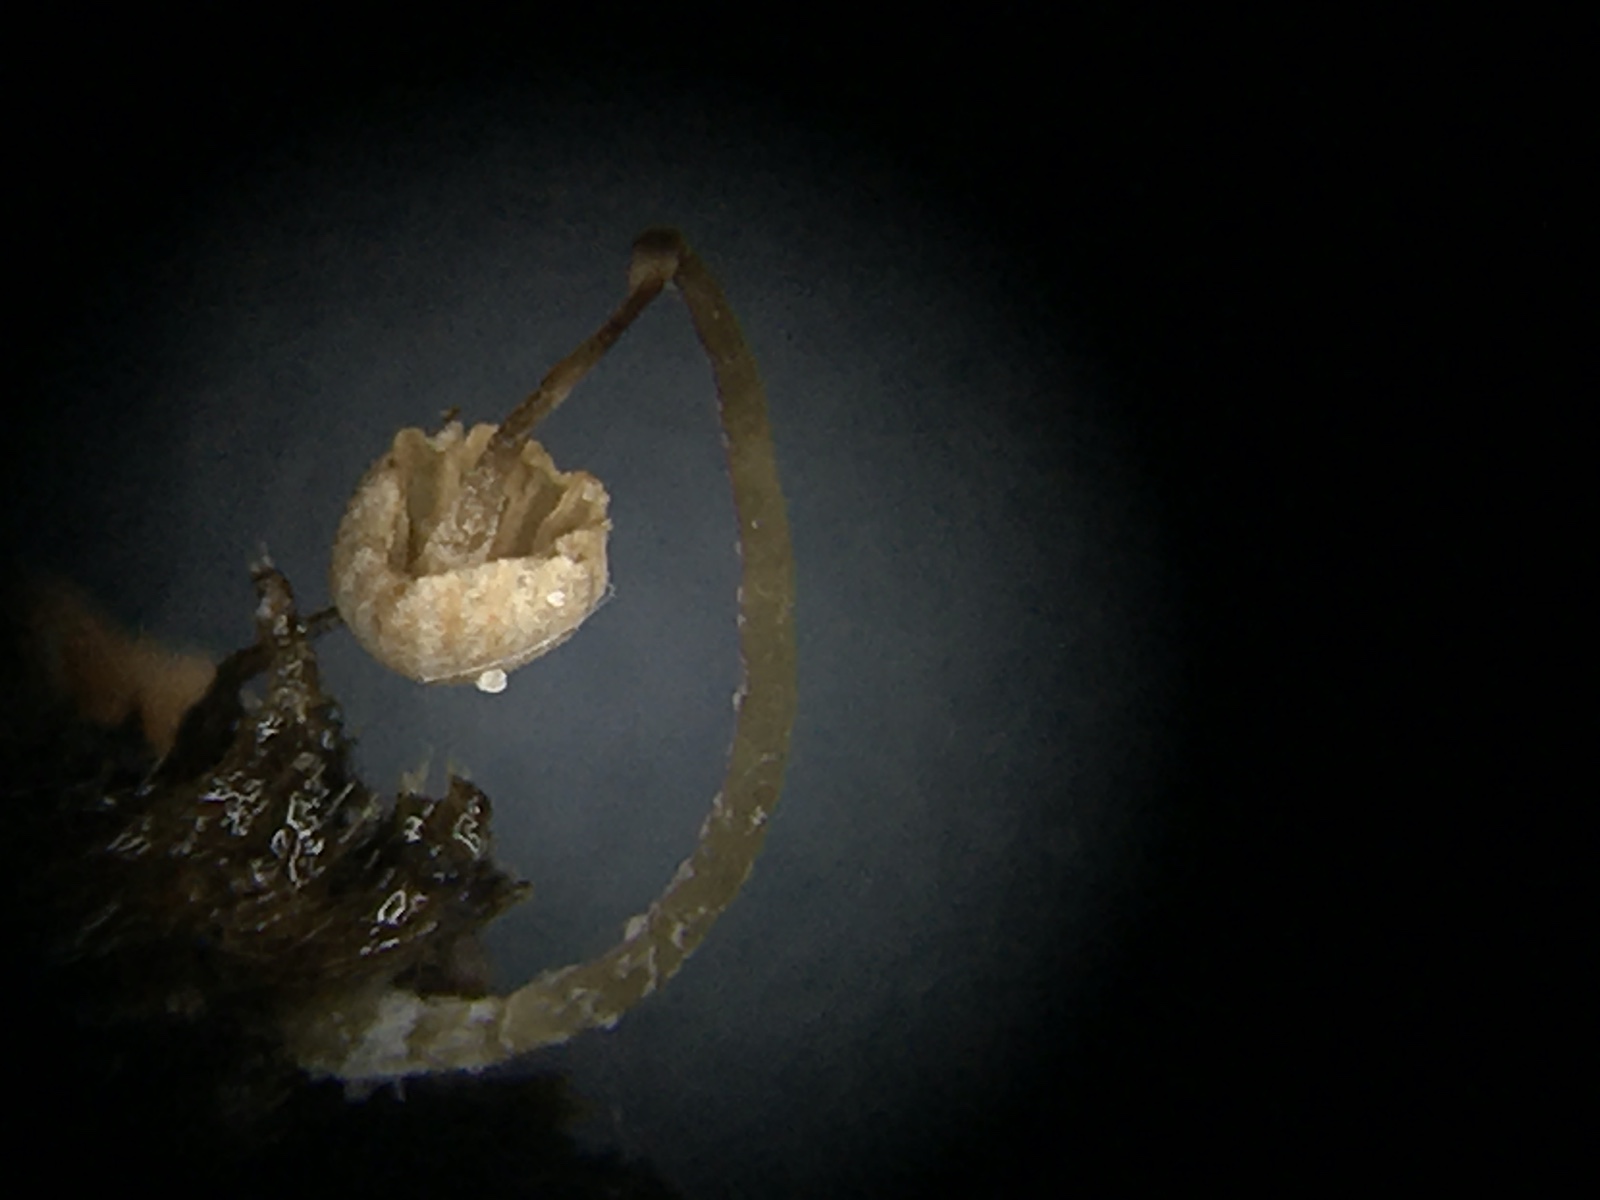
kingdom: Fungi
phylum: Basidiomycota
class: Agaricomycetes
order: Agaricales
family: Tubariaceae
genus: Flammulaster
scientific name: Flammulaster carpophilus
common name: bøge-grynskælhat
